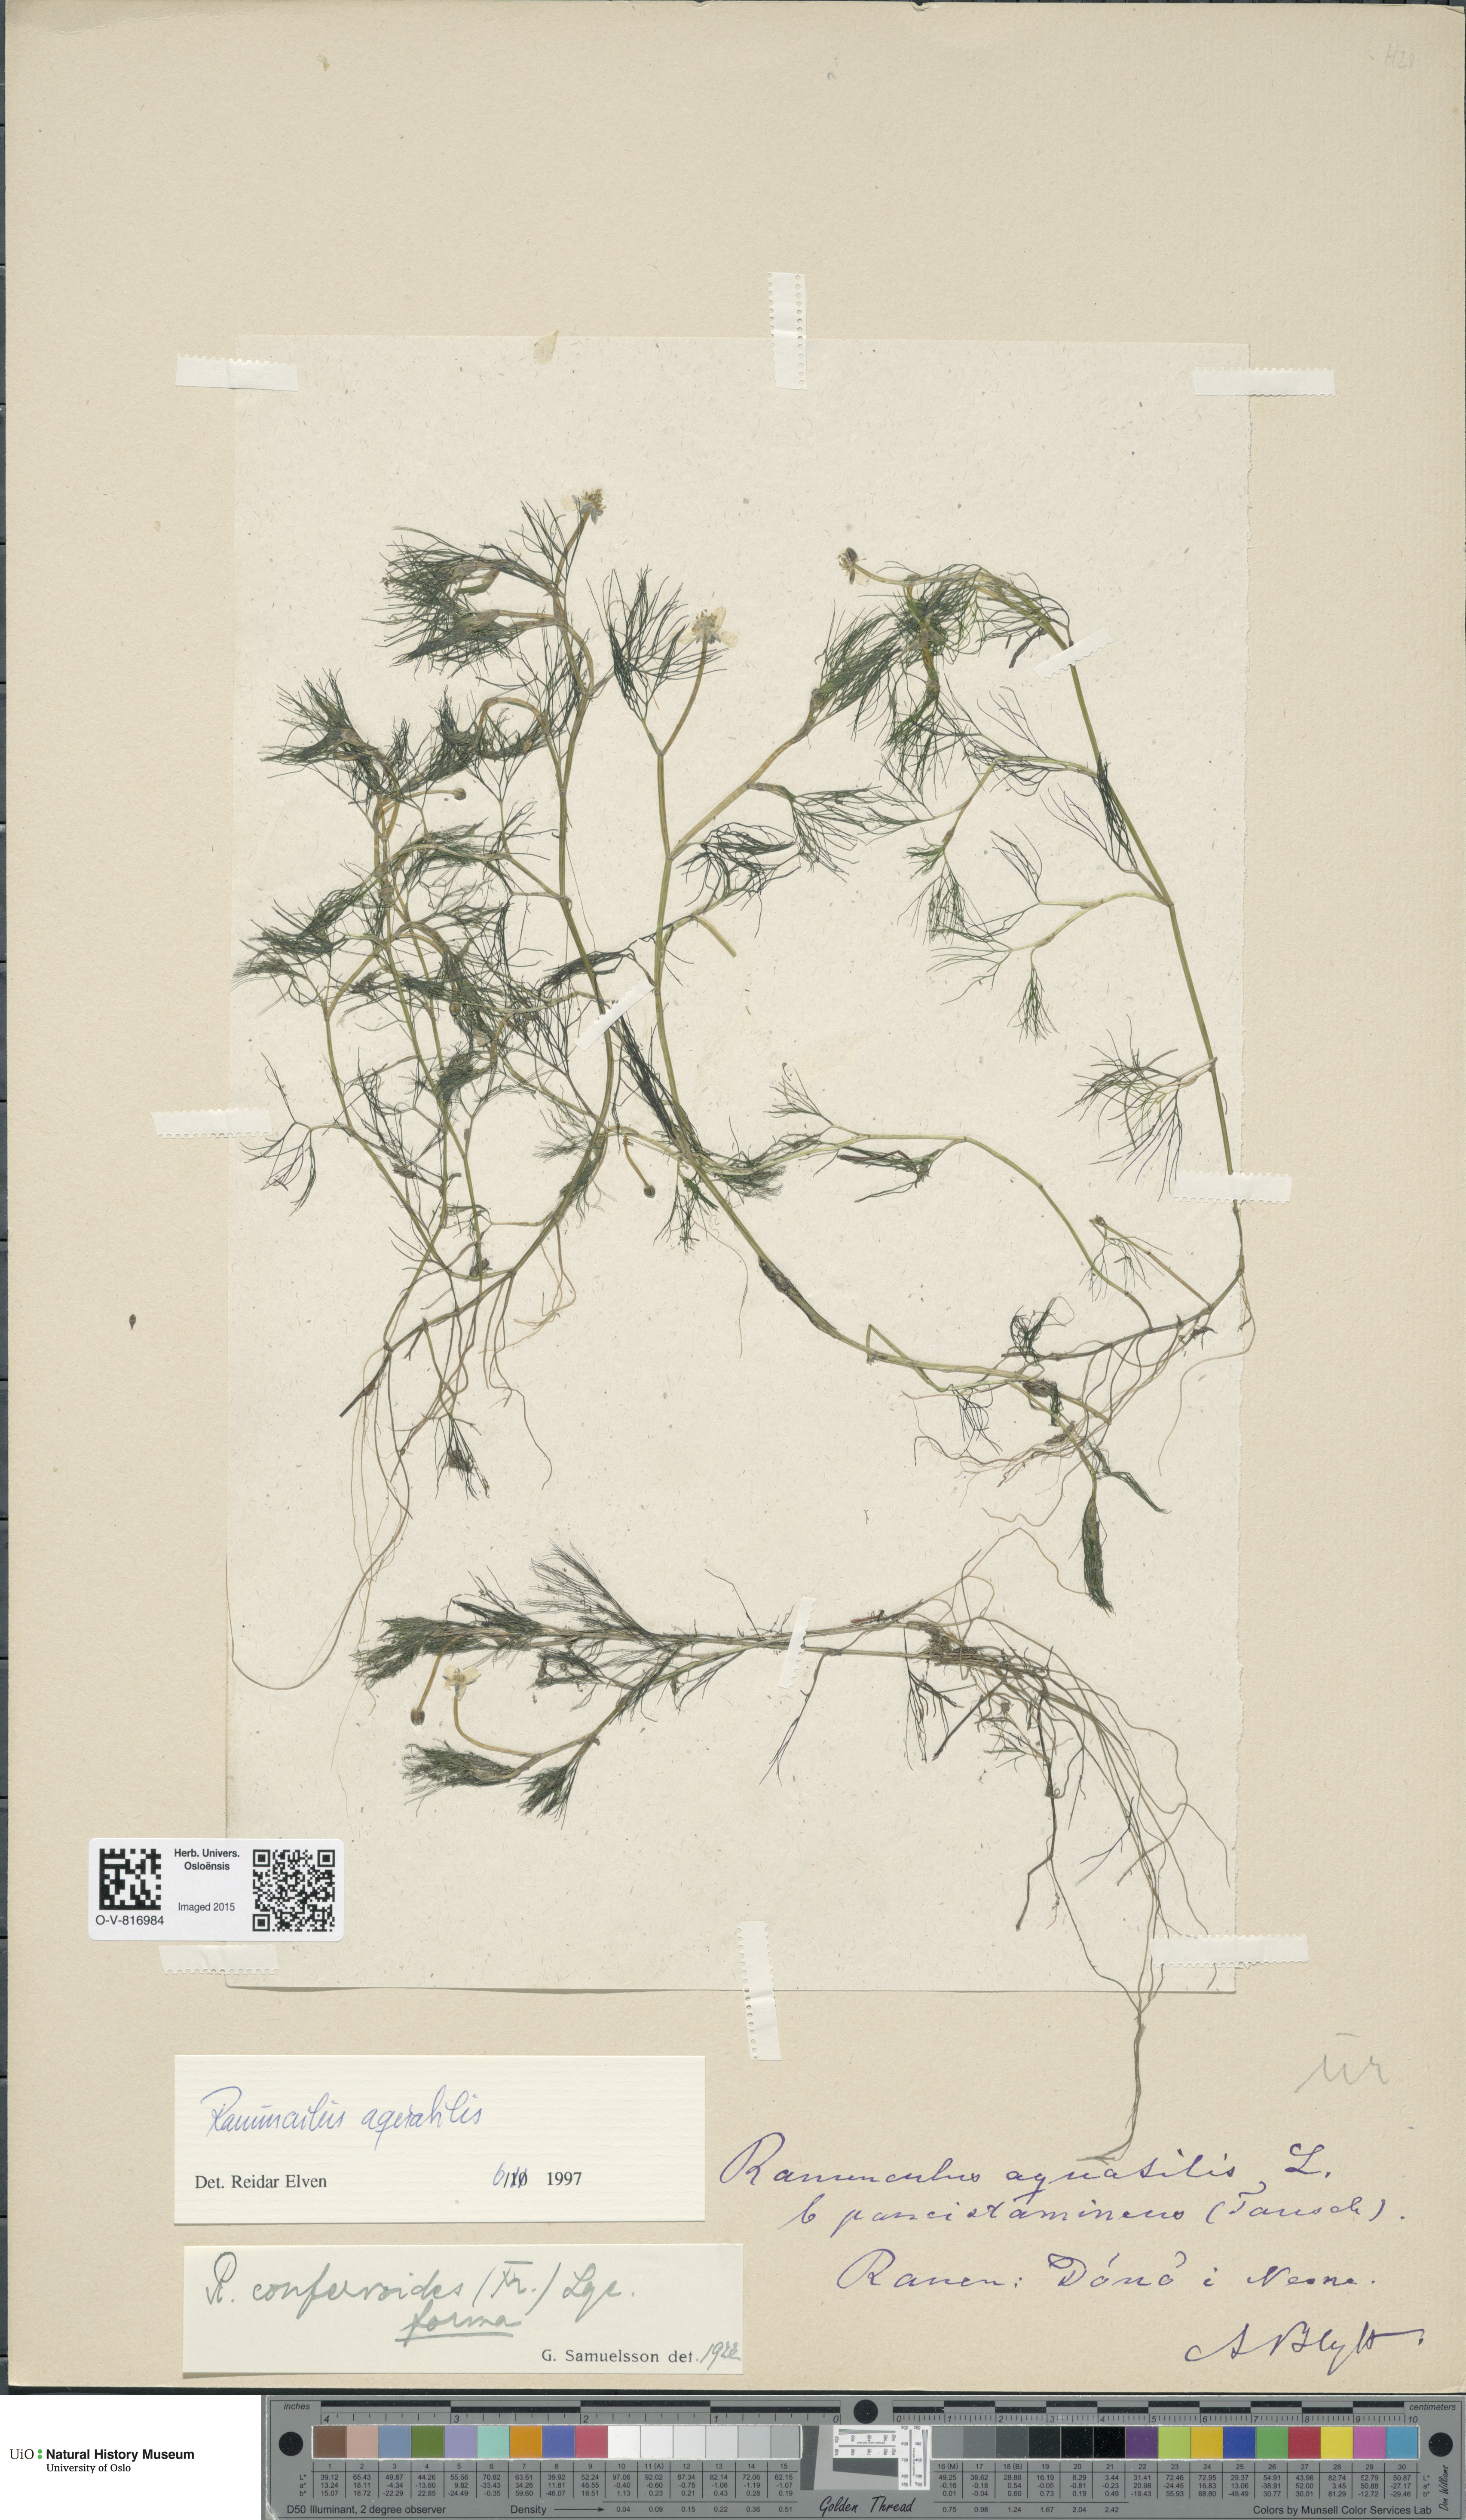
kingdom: Plantae
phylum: Tracheophyta
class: Magnoliopsida
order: Ranunculales
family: Ranunculaceae
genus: Ranunculus
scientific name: Ranunculus aquatilis
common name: Common water-crowfoot
